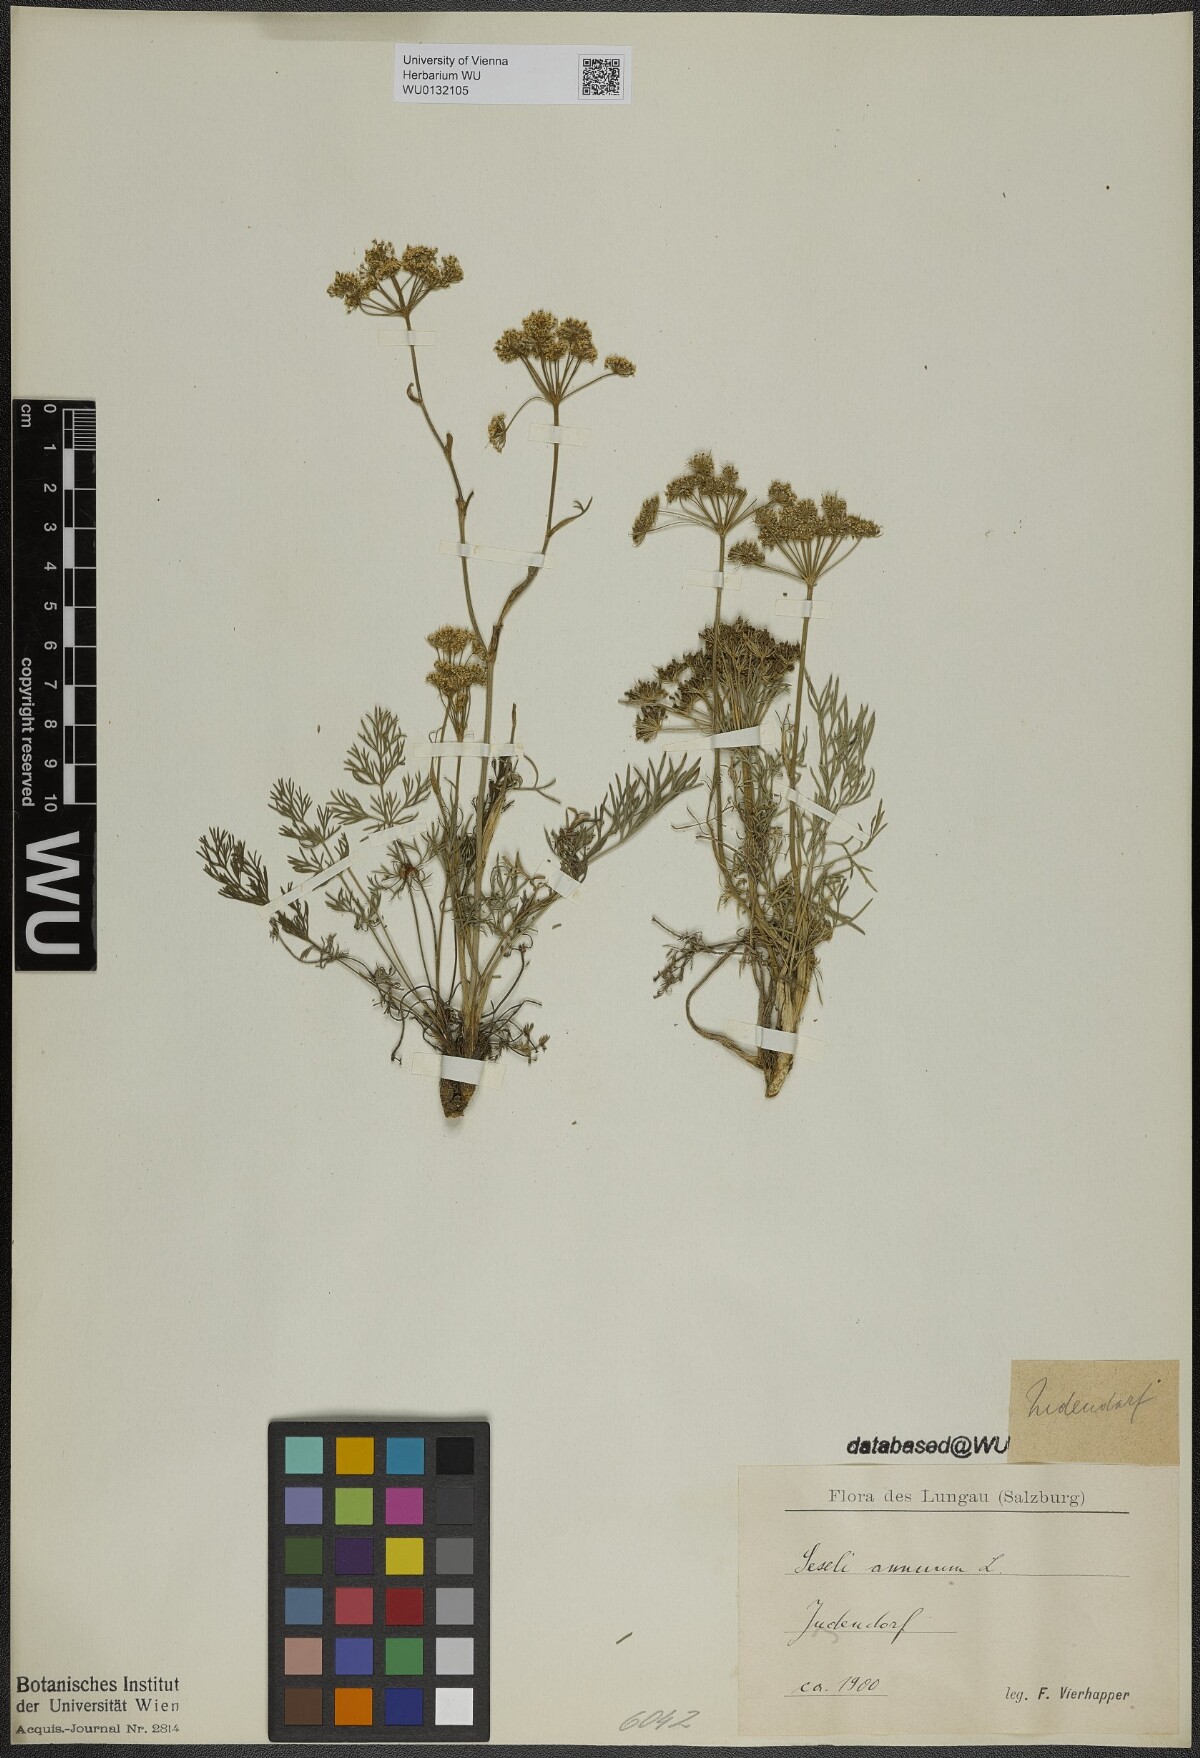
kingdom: Plantae
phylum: Tracheophyta
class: Magnoliopsida
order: Apiales
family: Apiaceae
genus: Seseli
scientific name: Seseli annuum
